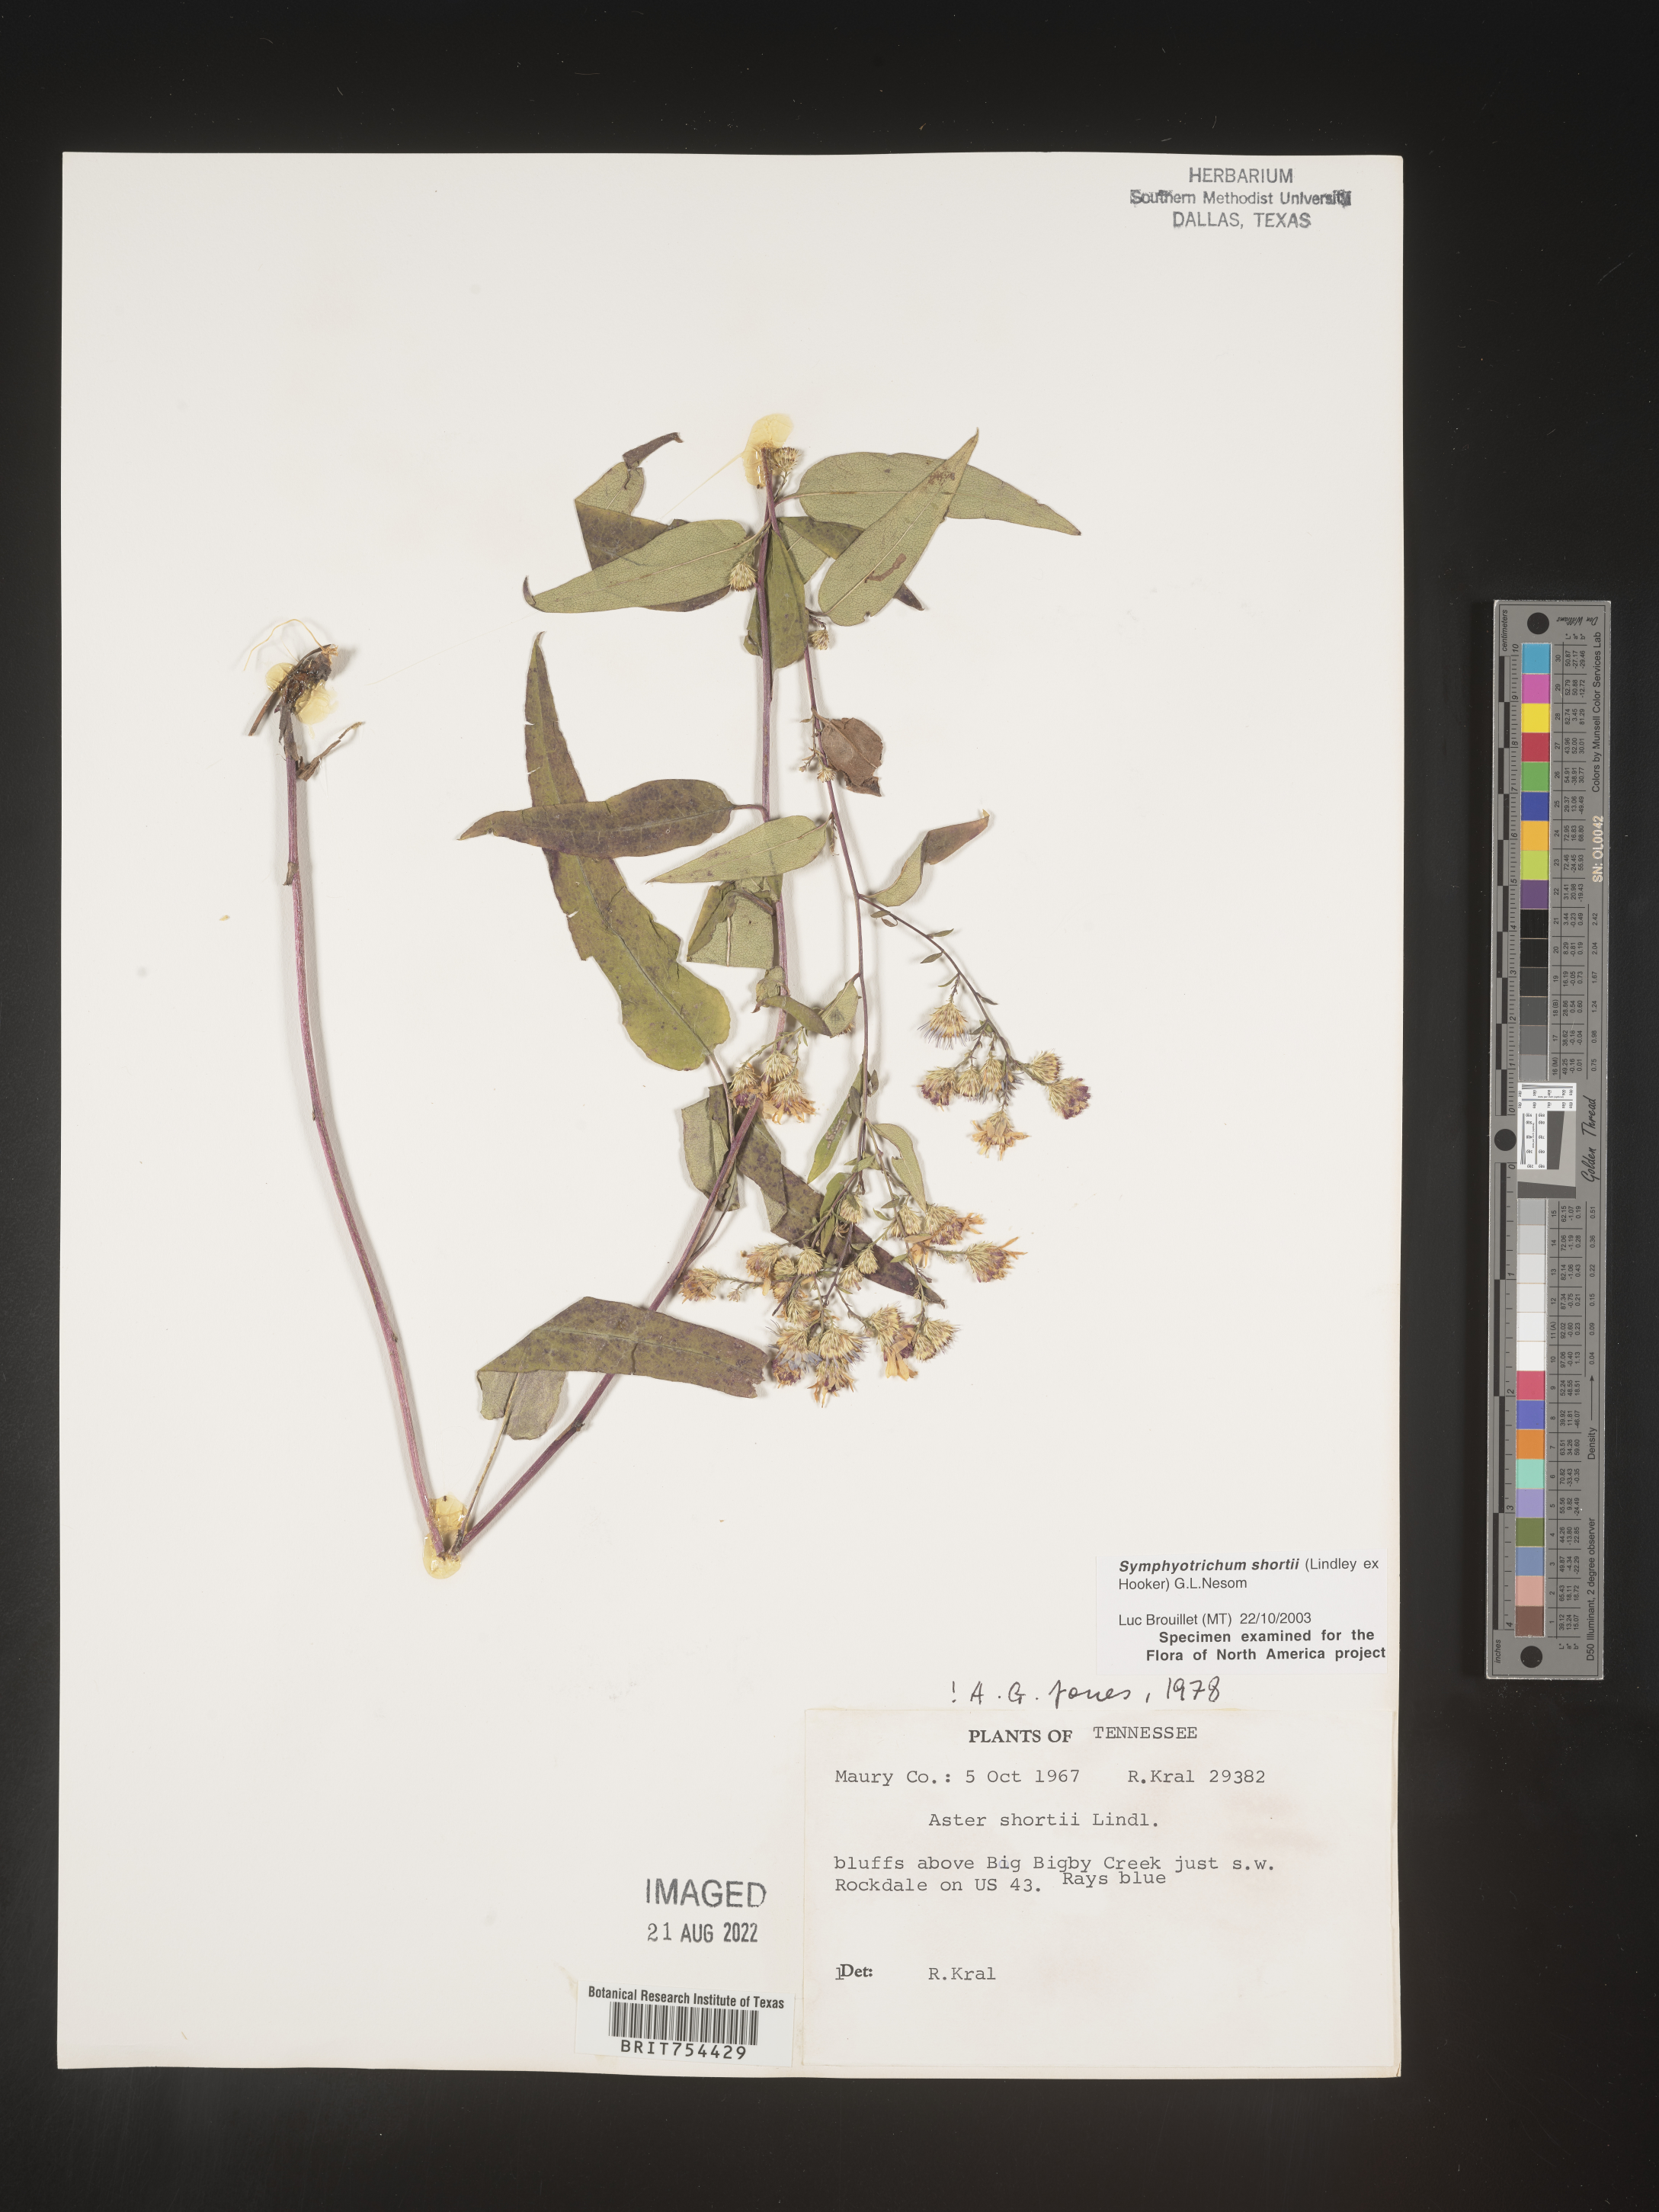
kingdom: Plantae
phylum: Tracheophyta
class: Magnoliopsida
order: Asterales
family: Asteraceae
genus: Symphyotrichum
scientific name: Symphyotrichum shortii
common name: Short's aster
